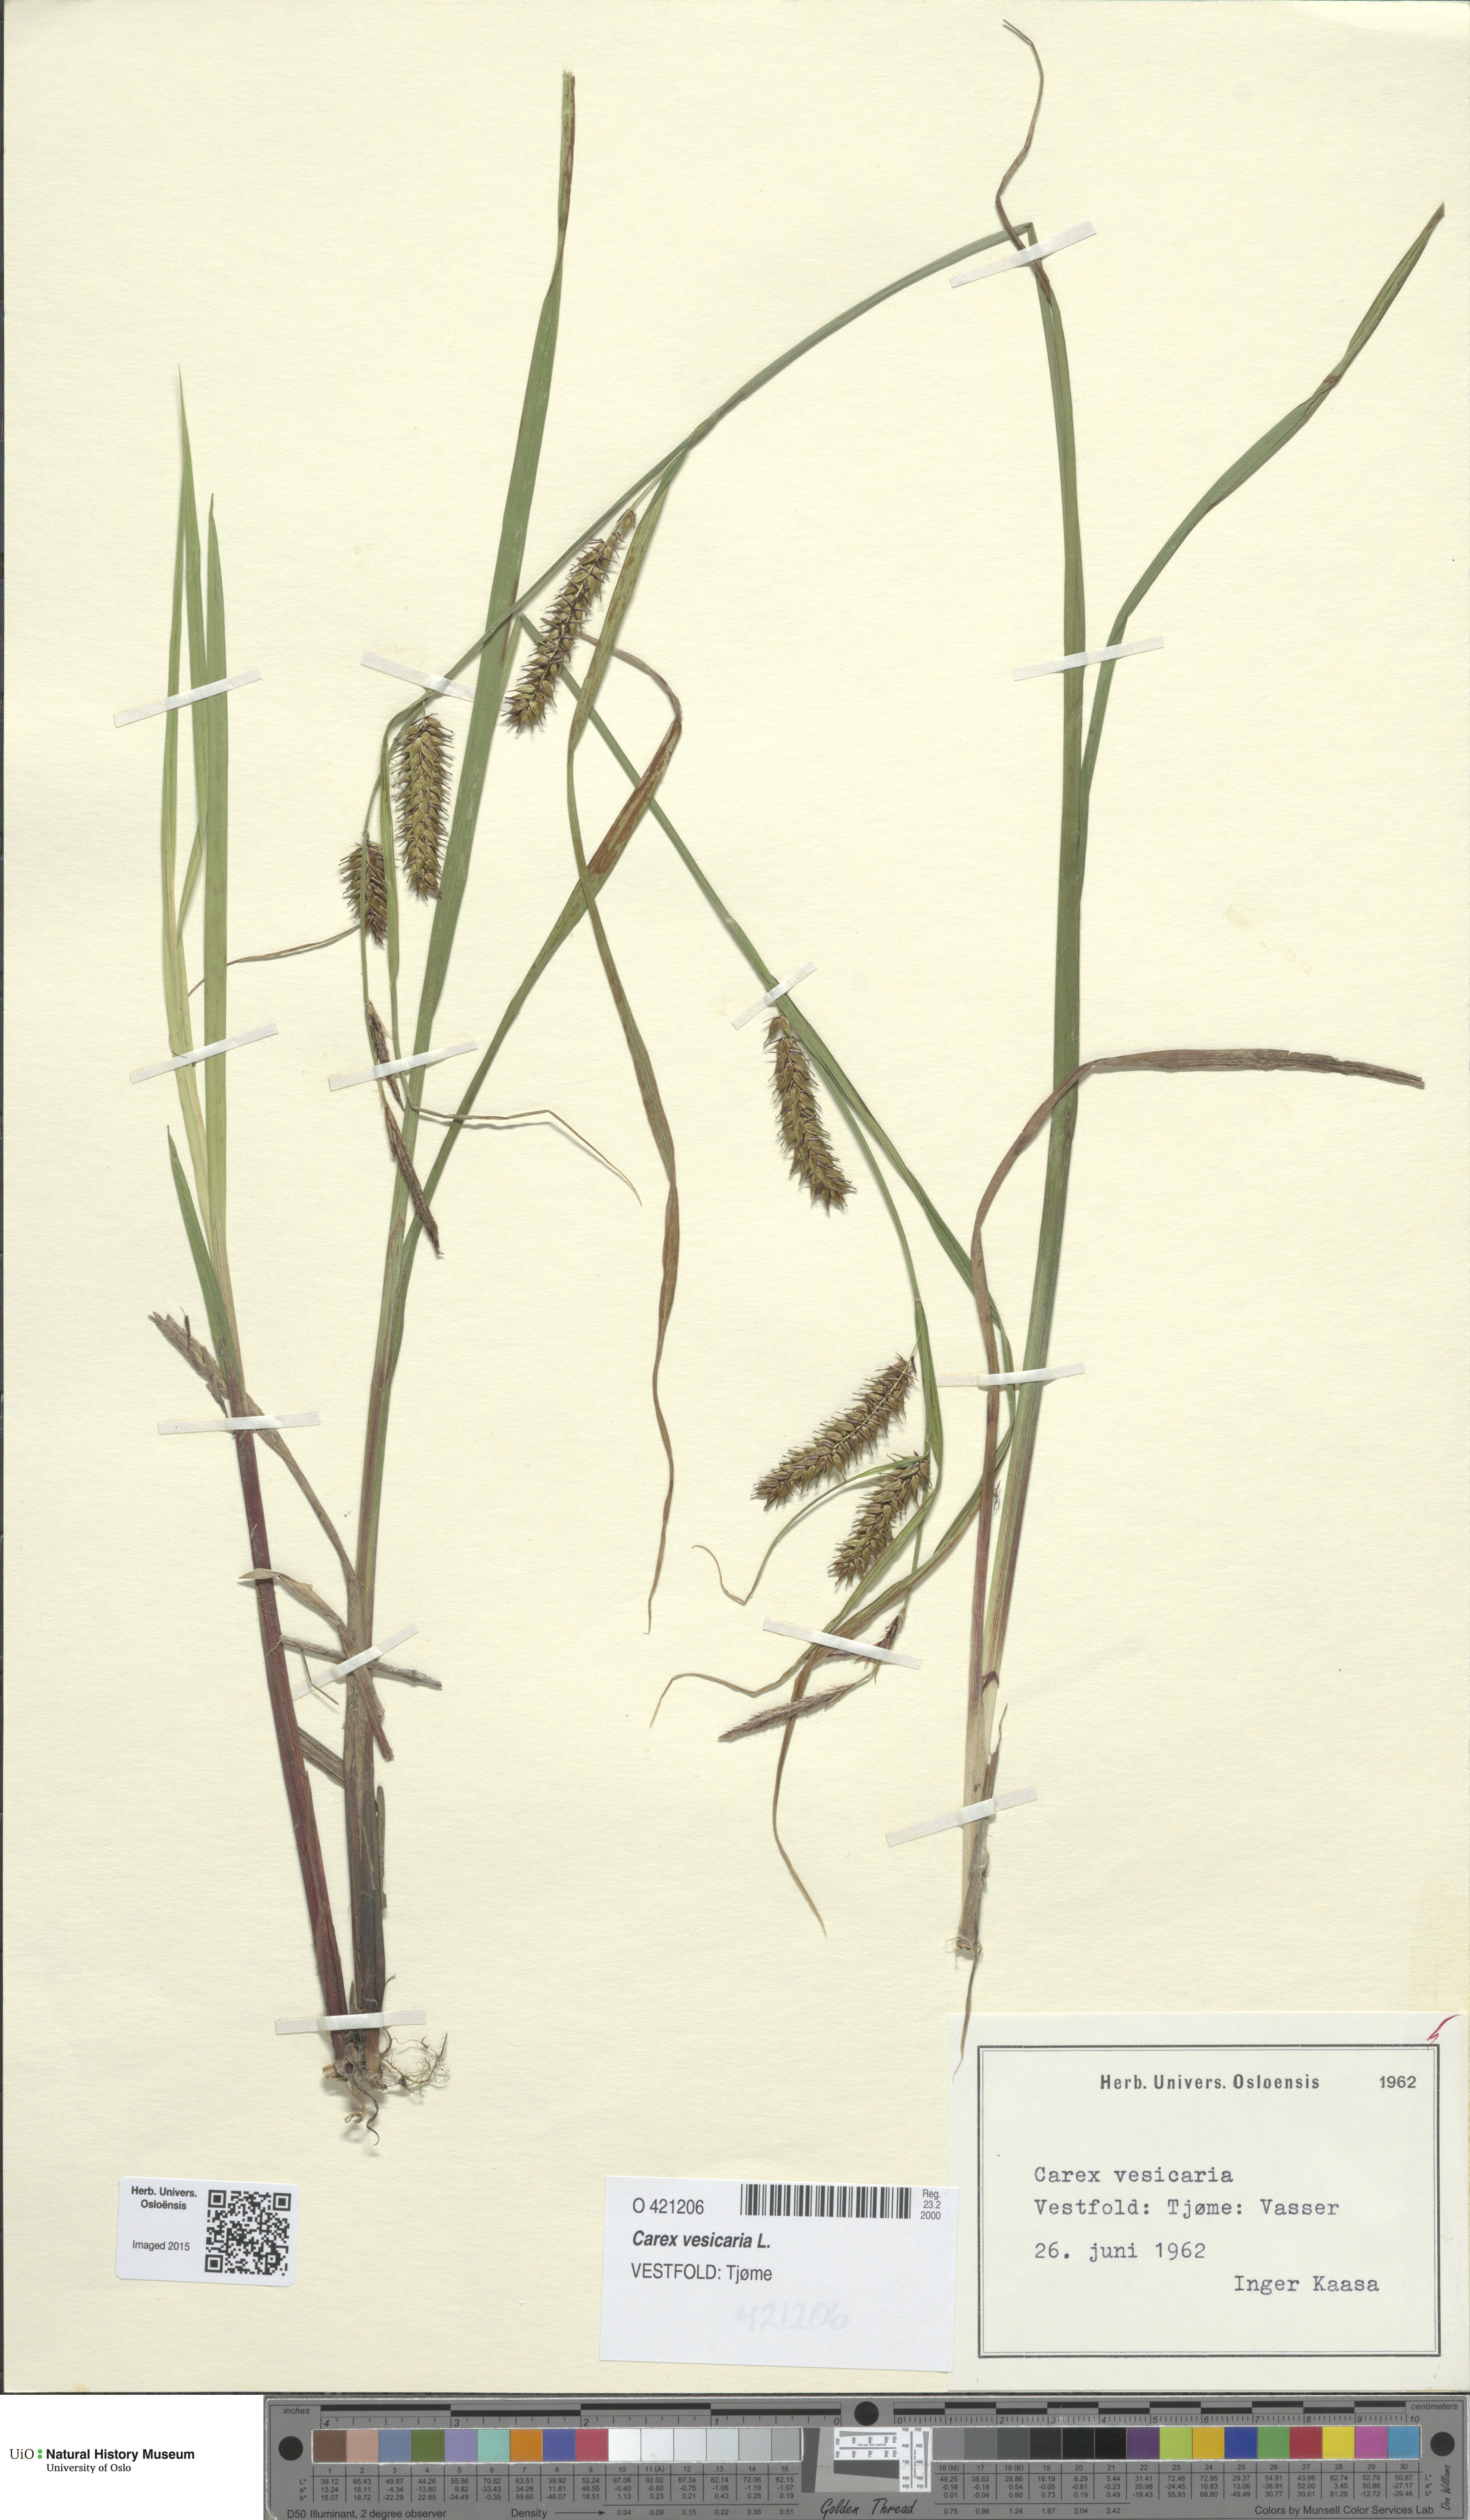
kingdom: Plantae
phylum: Tracheophyta
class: Liliopsida
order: Poales
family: Cyperaceae
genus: Carex
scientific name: Carex vesicaria
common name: Bladder-sedge
